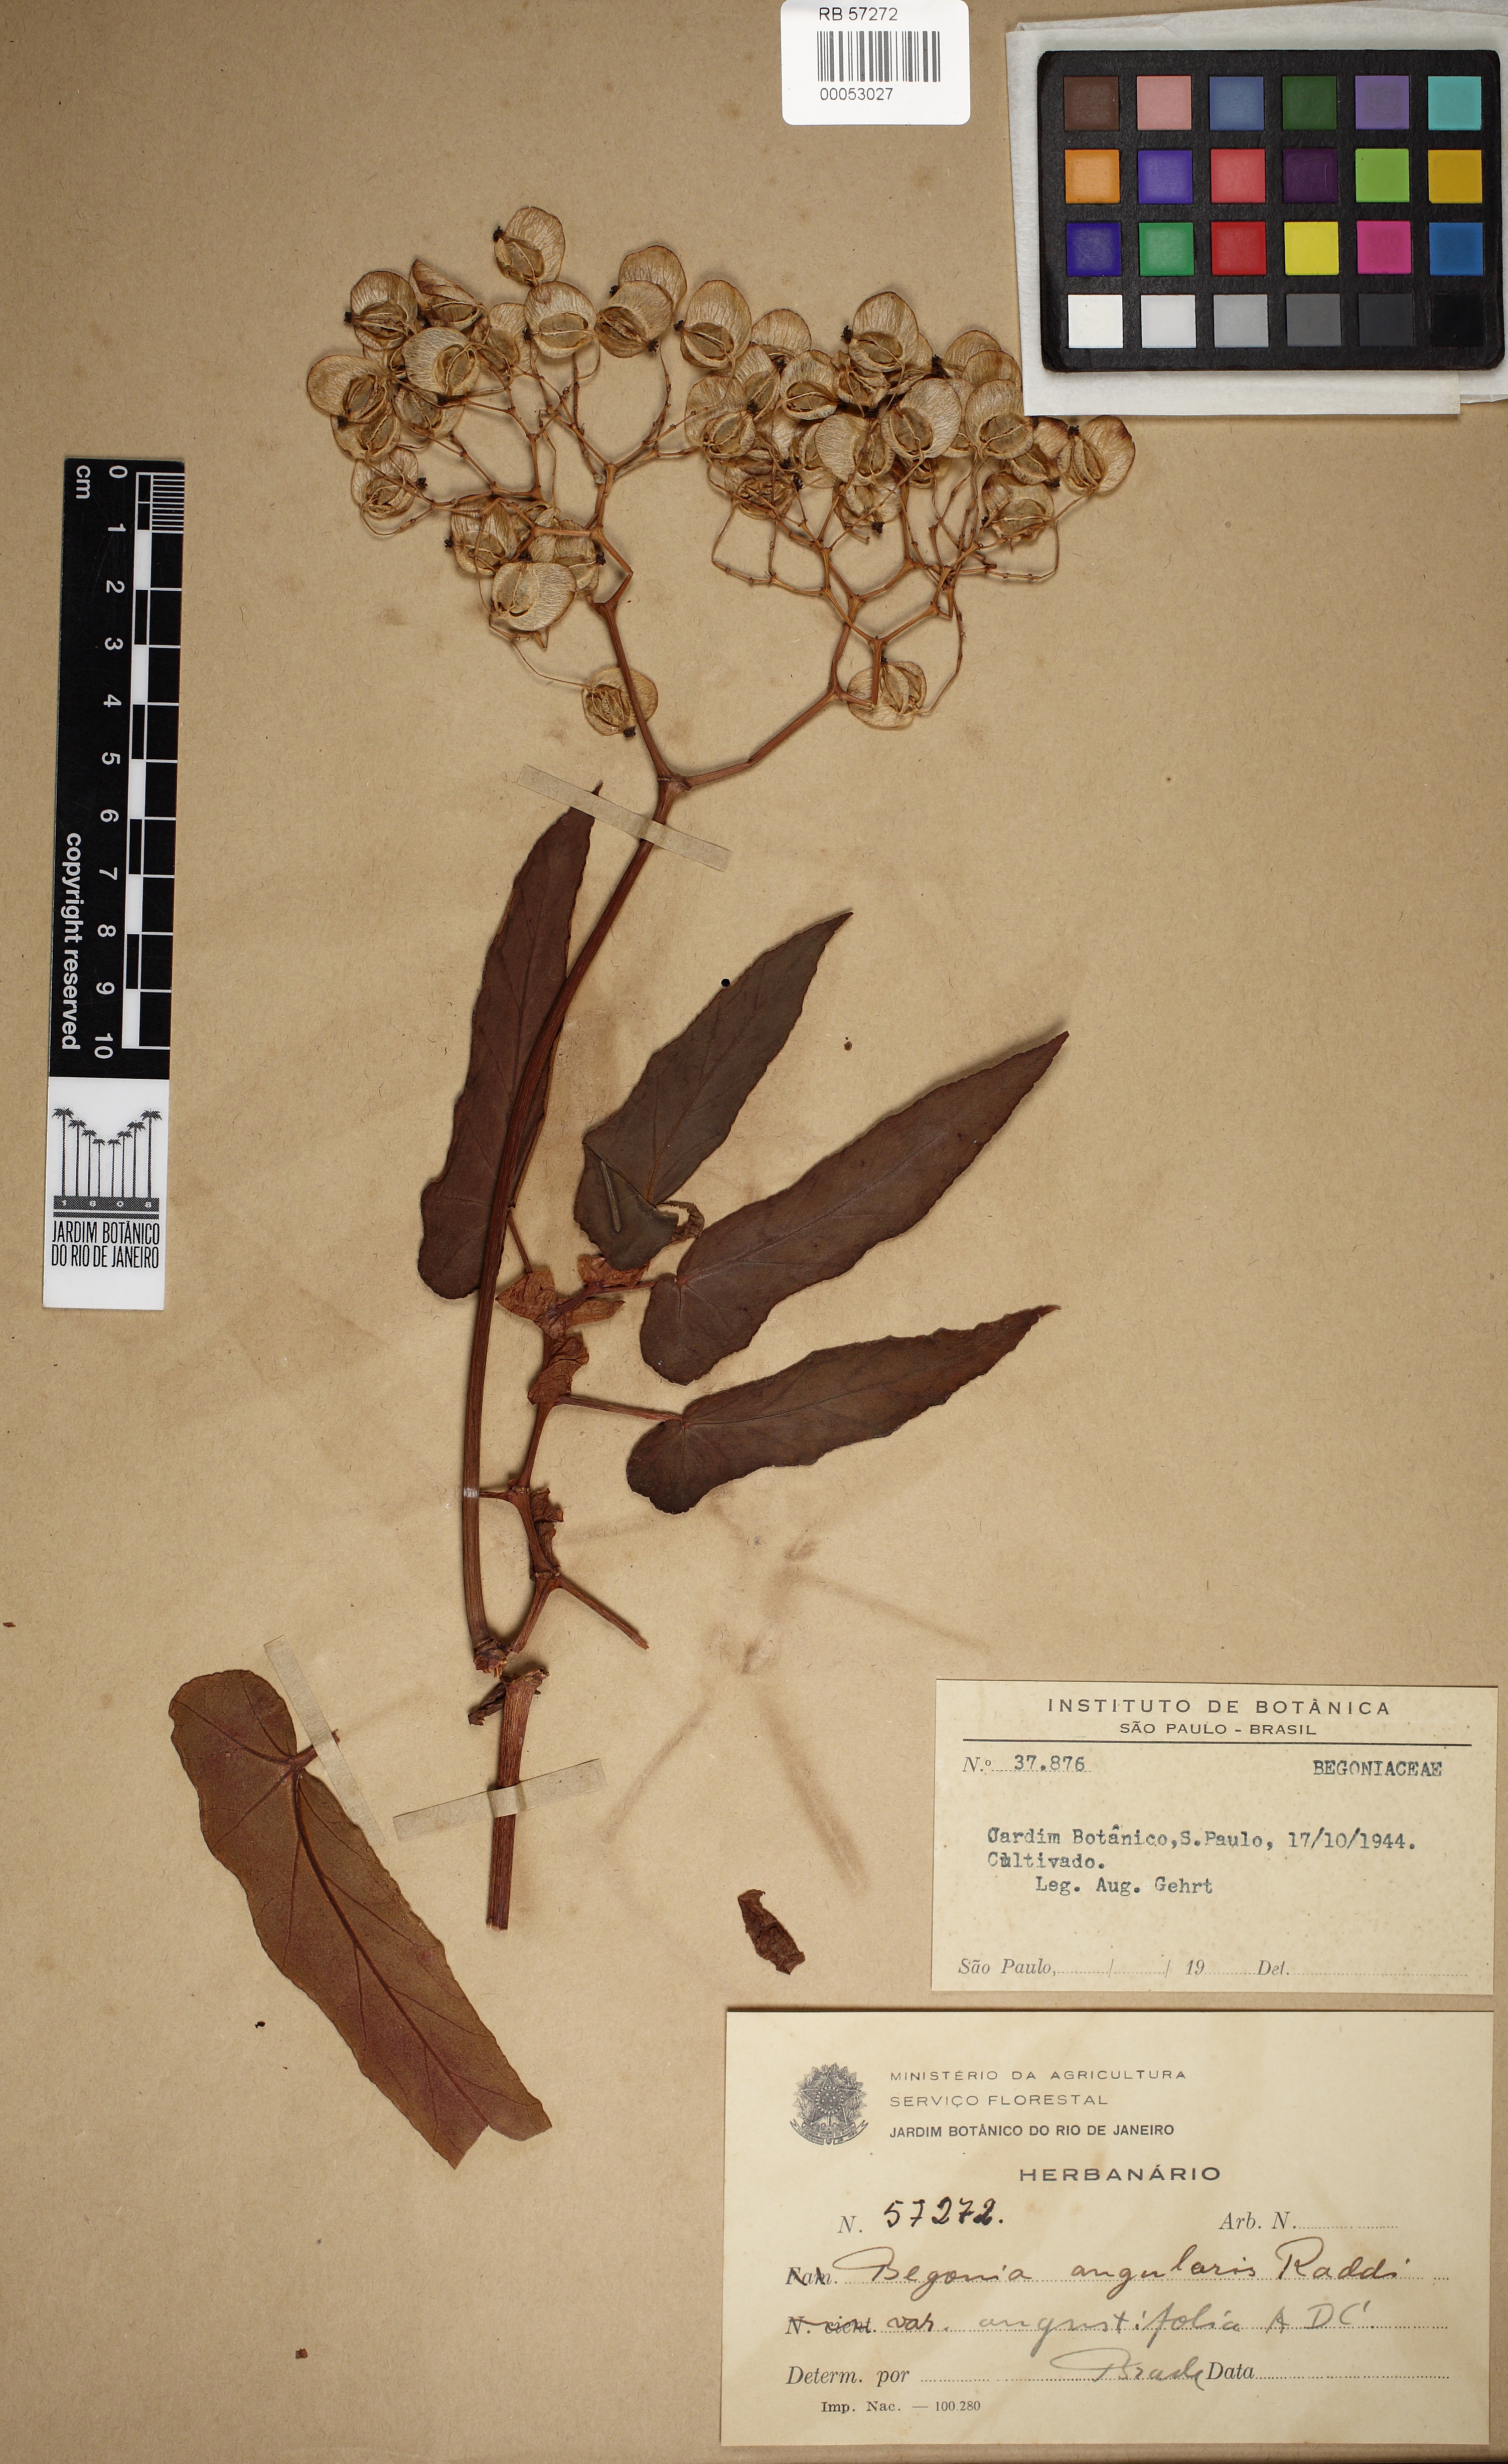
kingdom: Plantae
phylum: Tracheophyta
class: Magnoliopsida
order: Cucurbitales
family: Begoniaceae
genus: Begonia
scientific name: Begonia angularis
